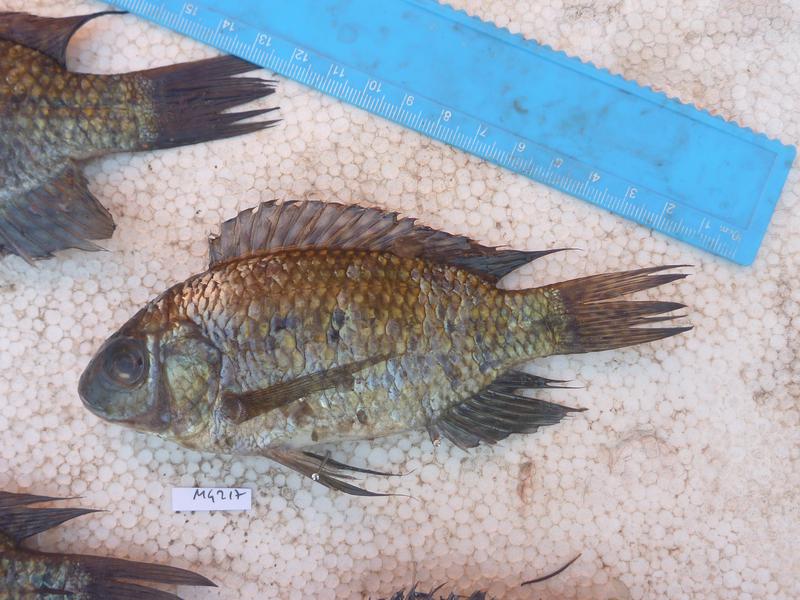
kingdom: Animalia
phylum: Chordata
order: Perciformes
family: Cichlidae
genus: Oreochromis
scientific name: Oreochromis leucostictus
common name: Blue spotted tilapia
